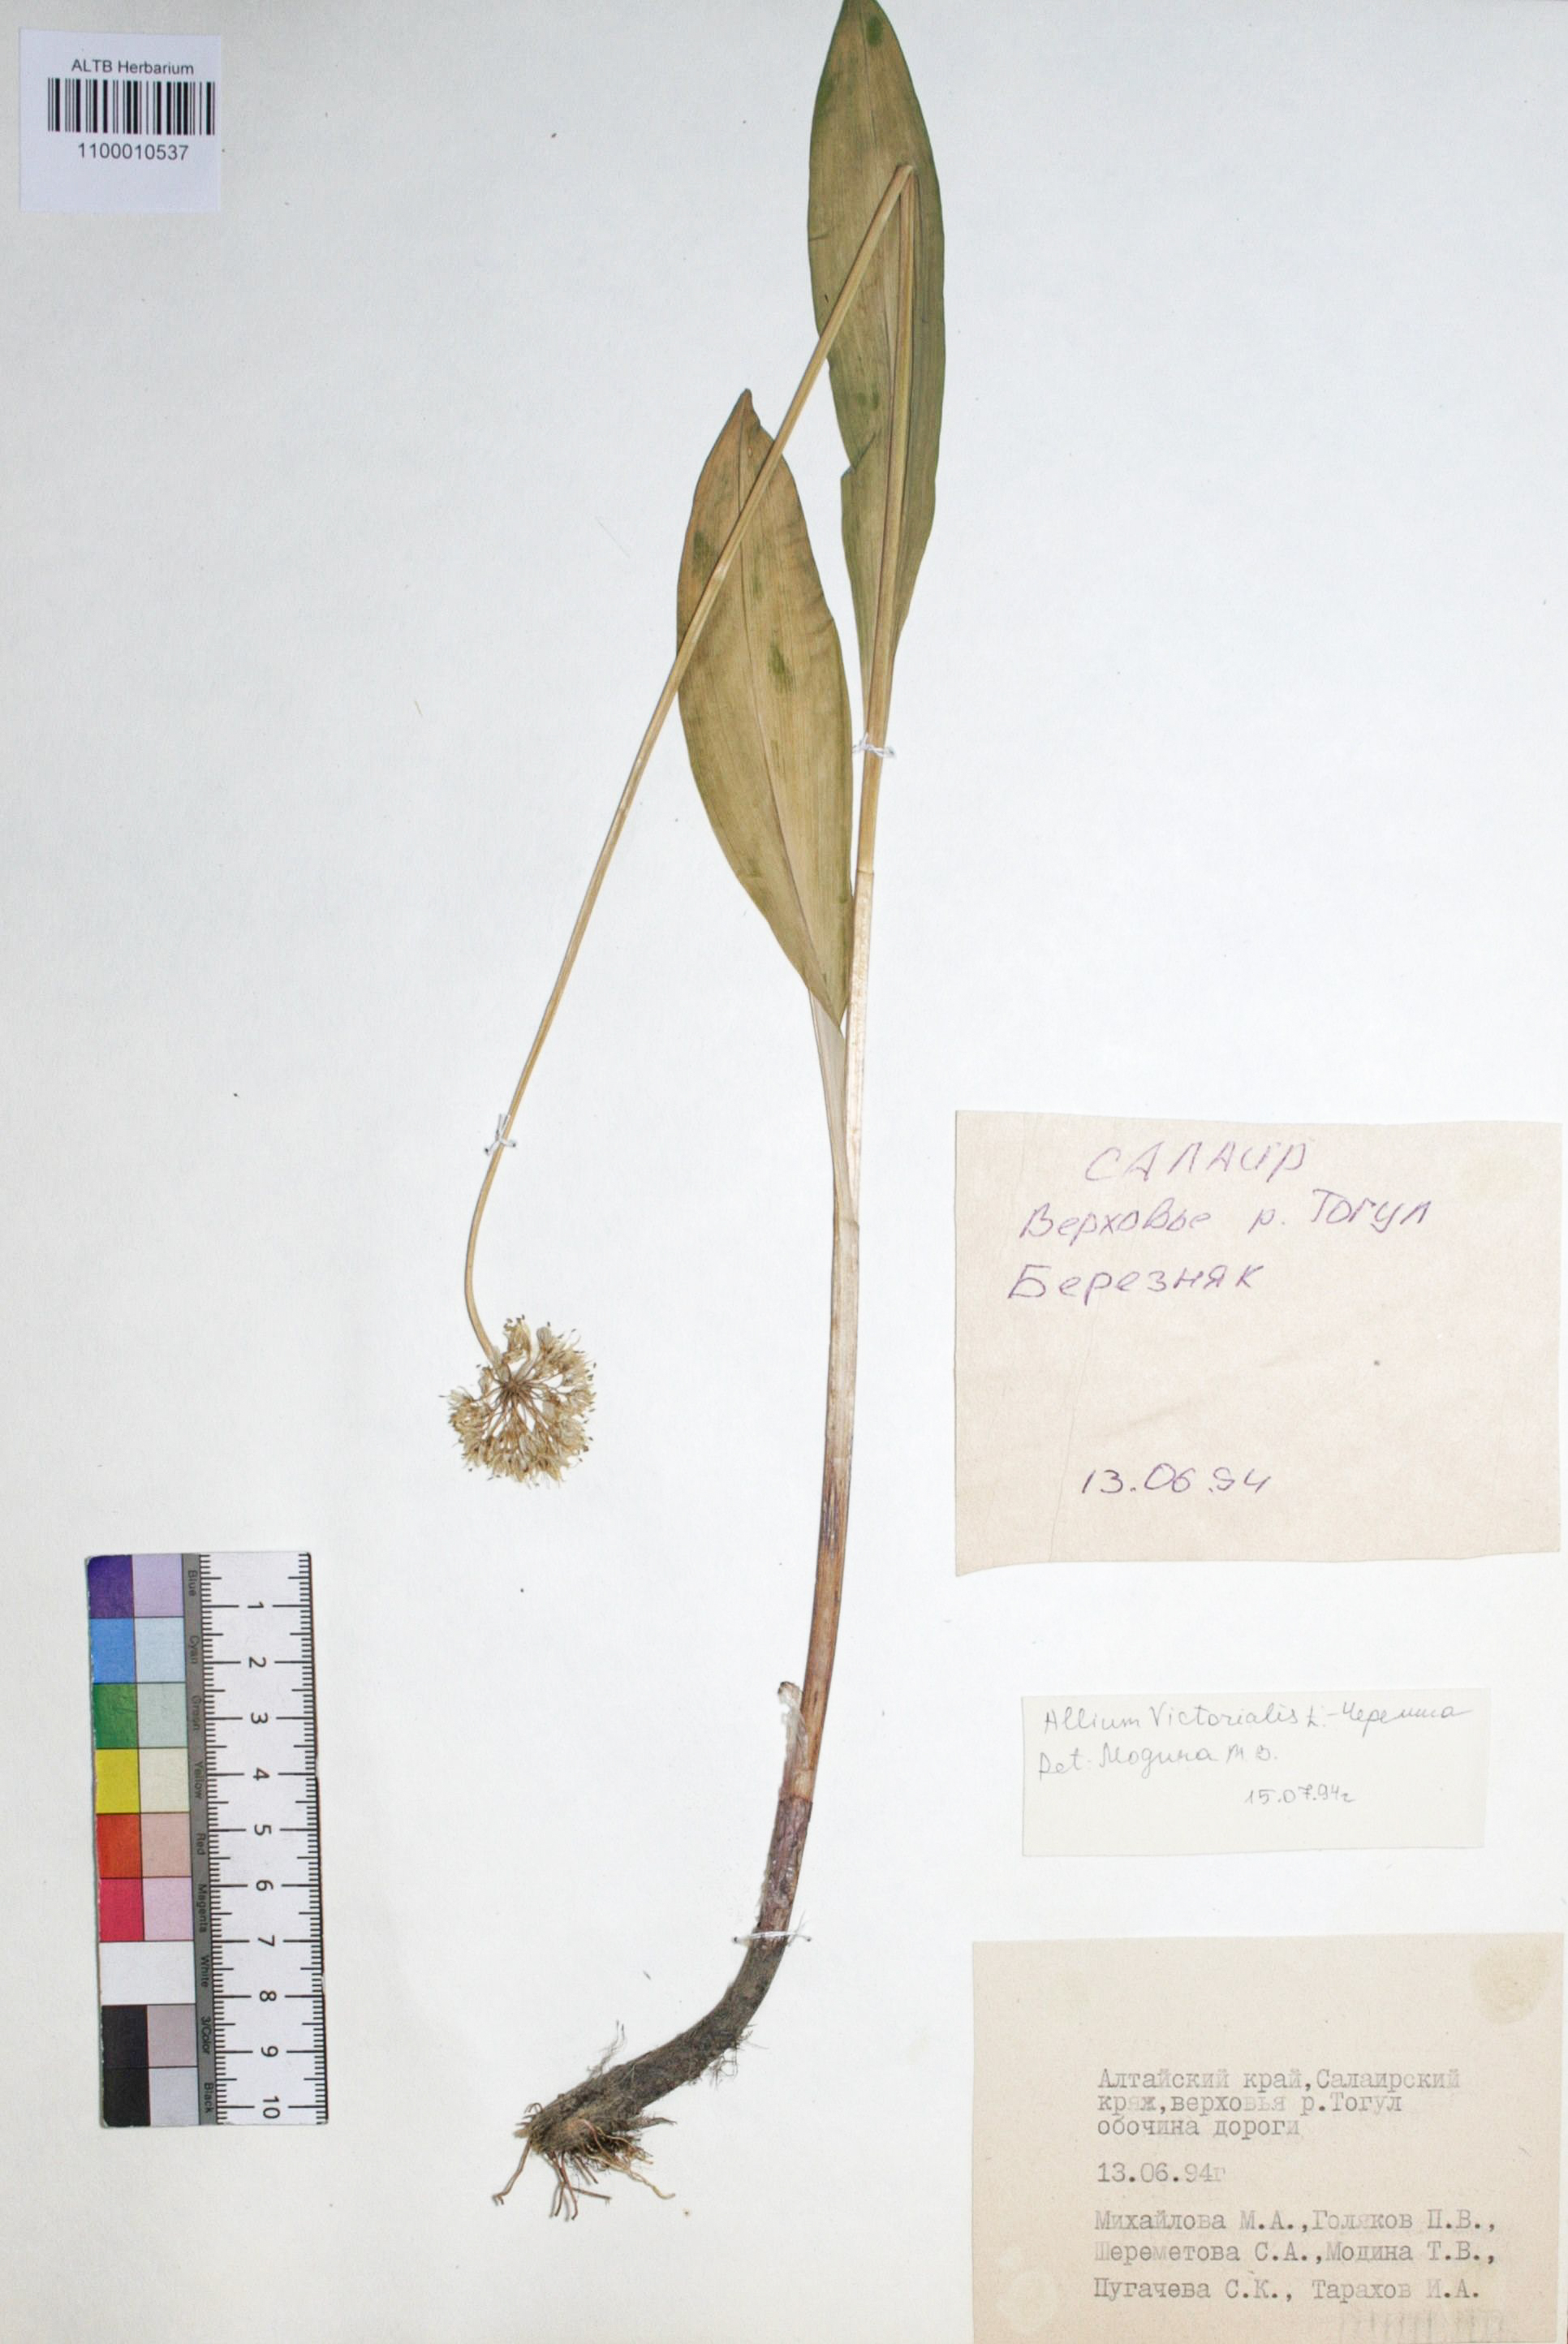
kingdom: Plantae
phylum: Tracheophyta
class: Liliopsida
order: Asparagales
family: Amaryllidaceae
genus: Allium
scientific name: Allium victorialis
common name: Alpine leek
